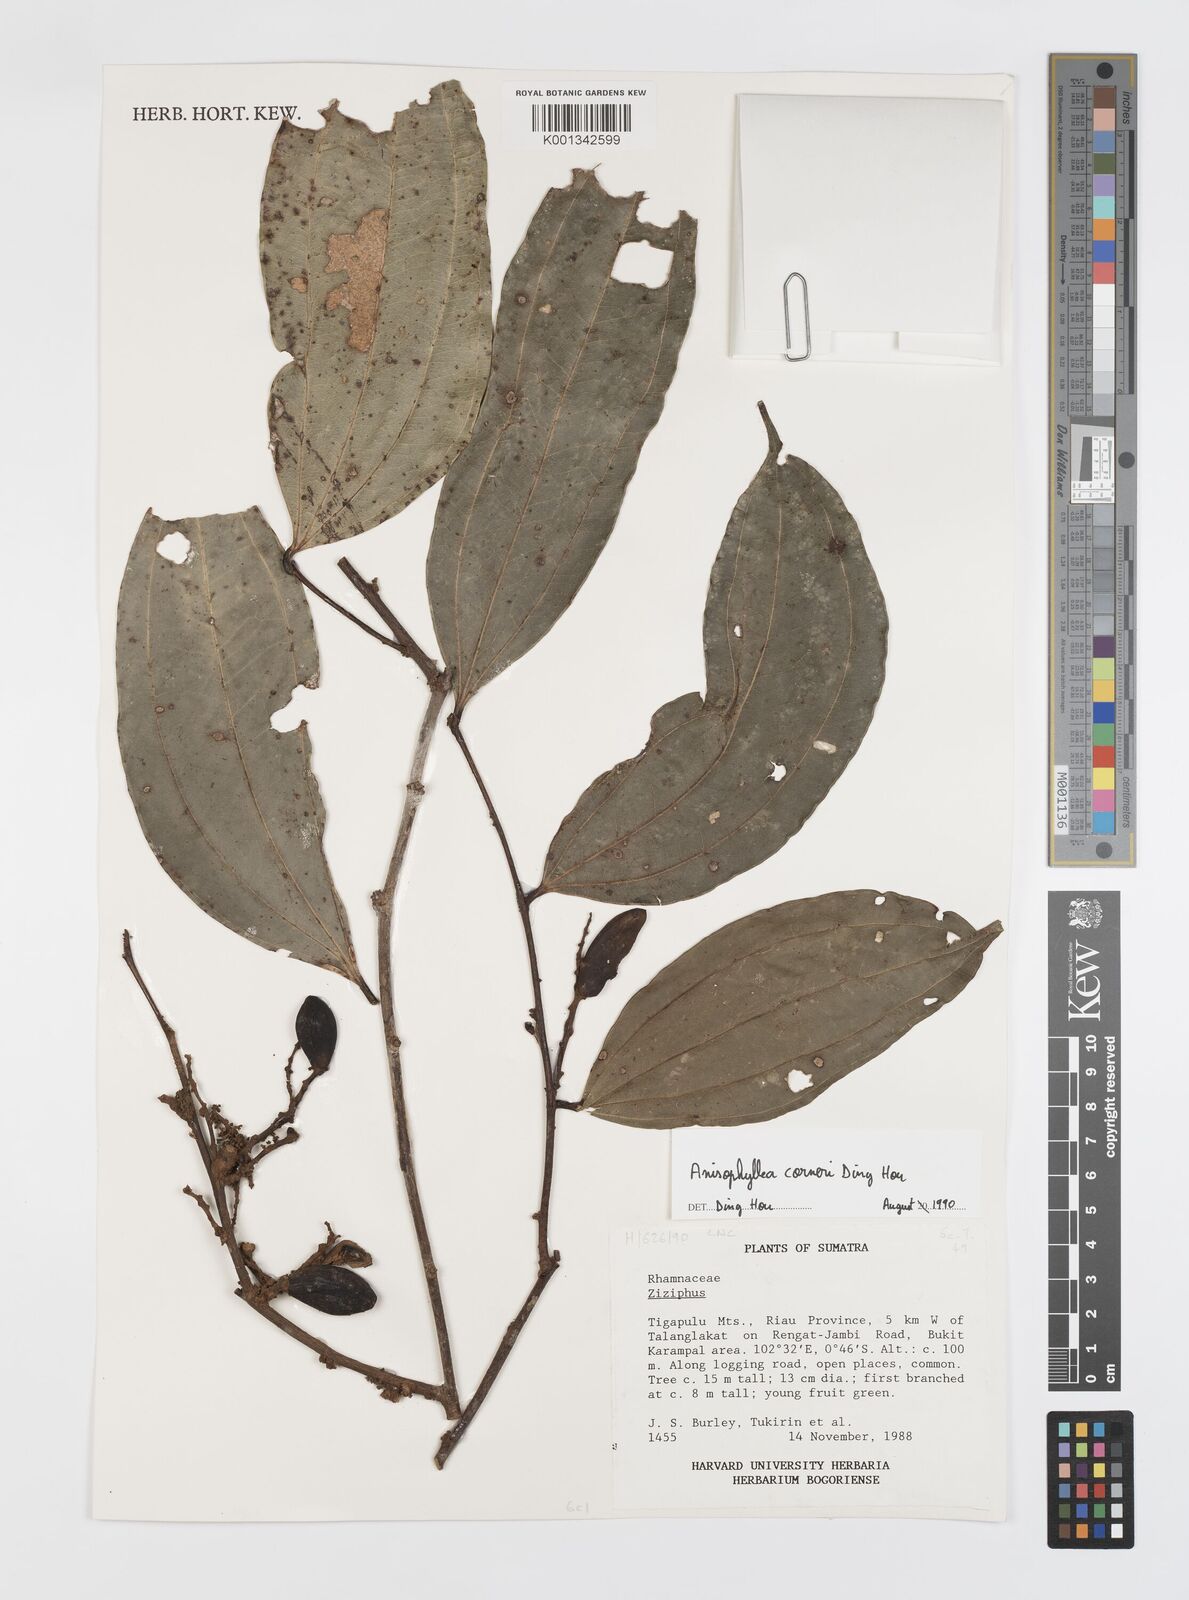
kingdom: Plantae
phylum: Tracheophyta
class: Magnoliopsida
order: Cucurbitales
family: Anisophylleaceae
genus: Anisophyllea
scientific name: Anisophyllea corneri
